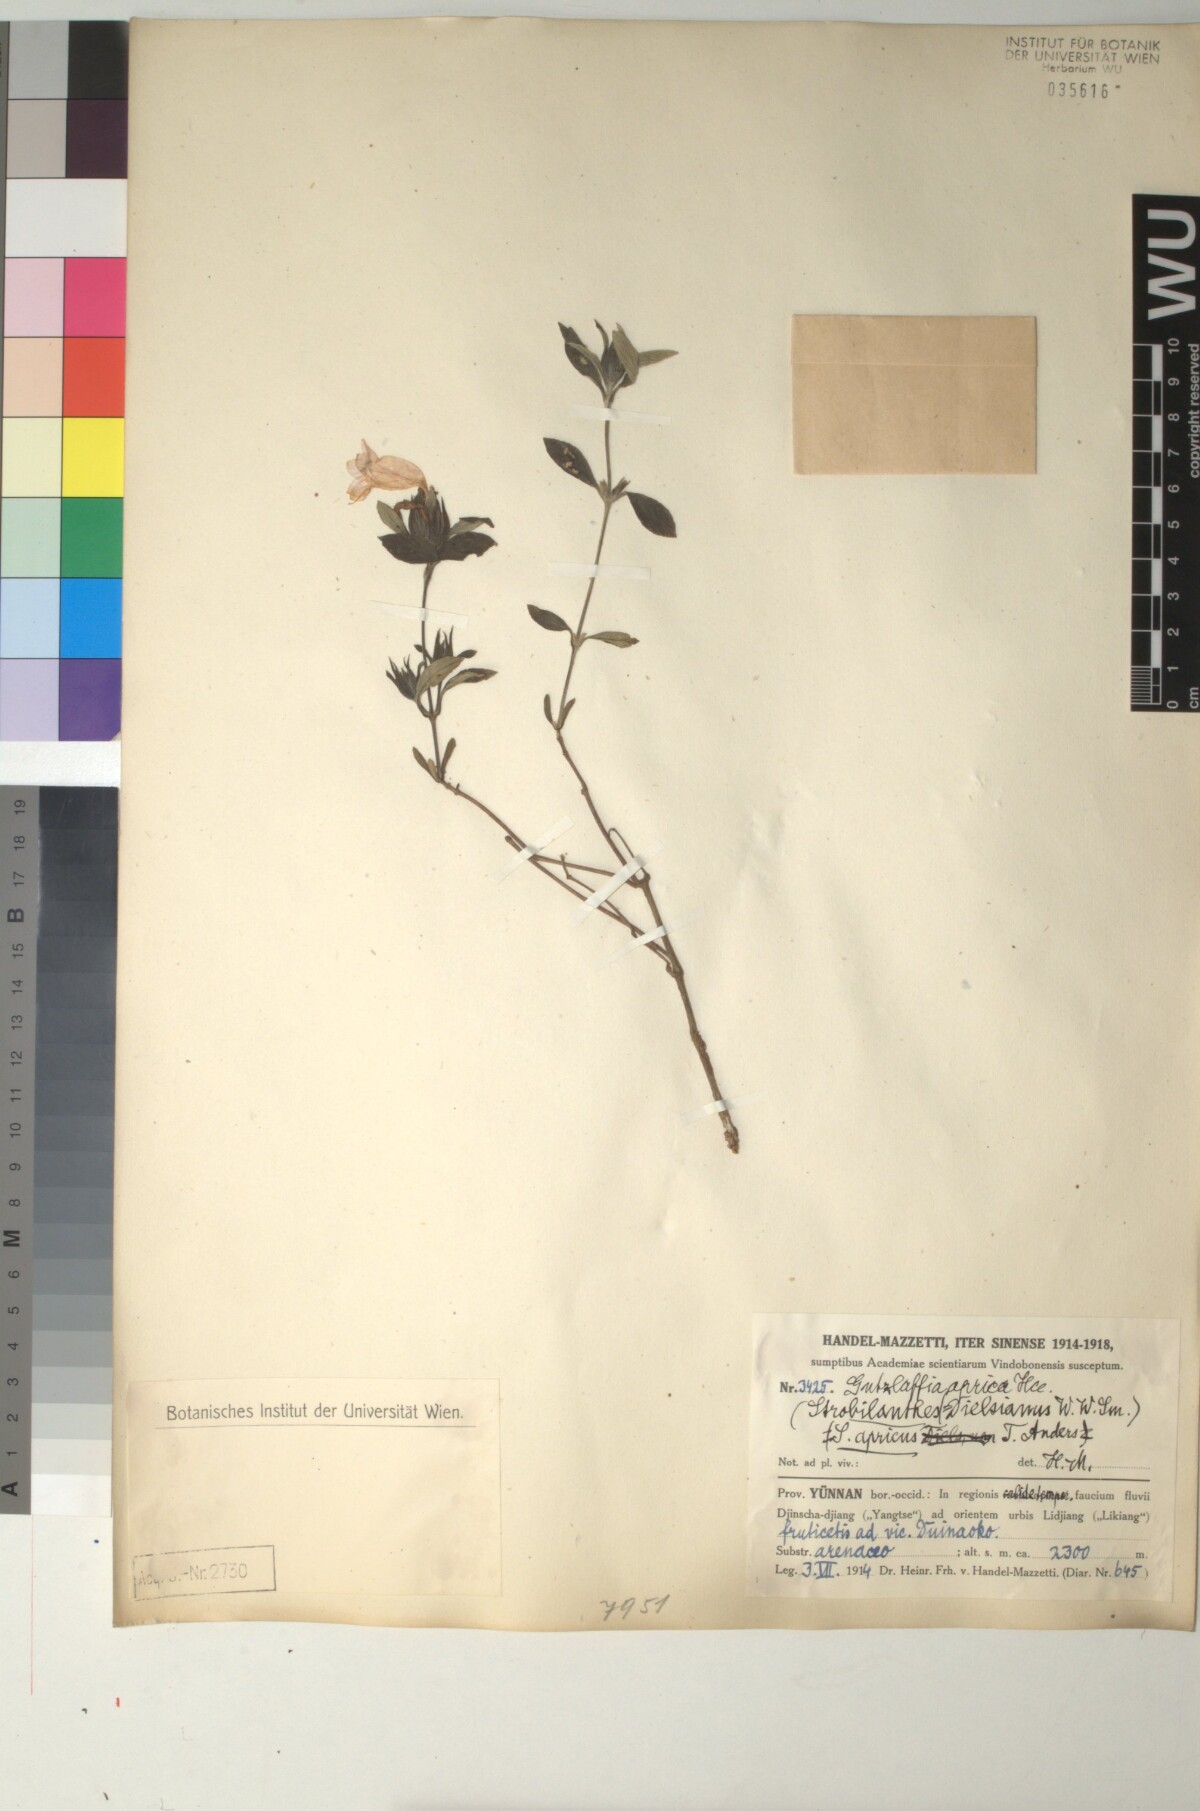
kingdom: Plantae
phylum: Tracheophyta
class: Magnoliopsida
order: Lamiales
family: Acanthaceae
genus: Strobilanthes
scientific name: Strobilanthes aprica
